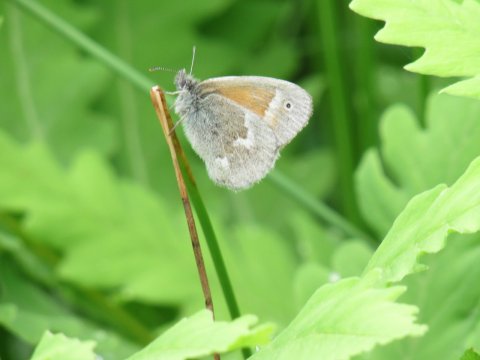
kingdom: Animalia
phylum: Arthropoda
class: Insecta
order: Lepidoptera
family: Nymphalidae
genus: Coenonympha
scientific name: Coenonympha tullia
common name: Large Heath
